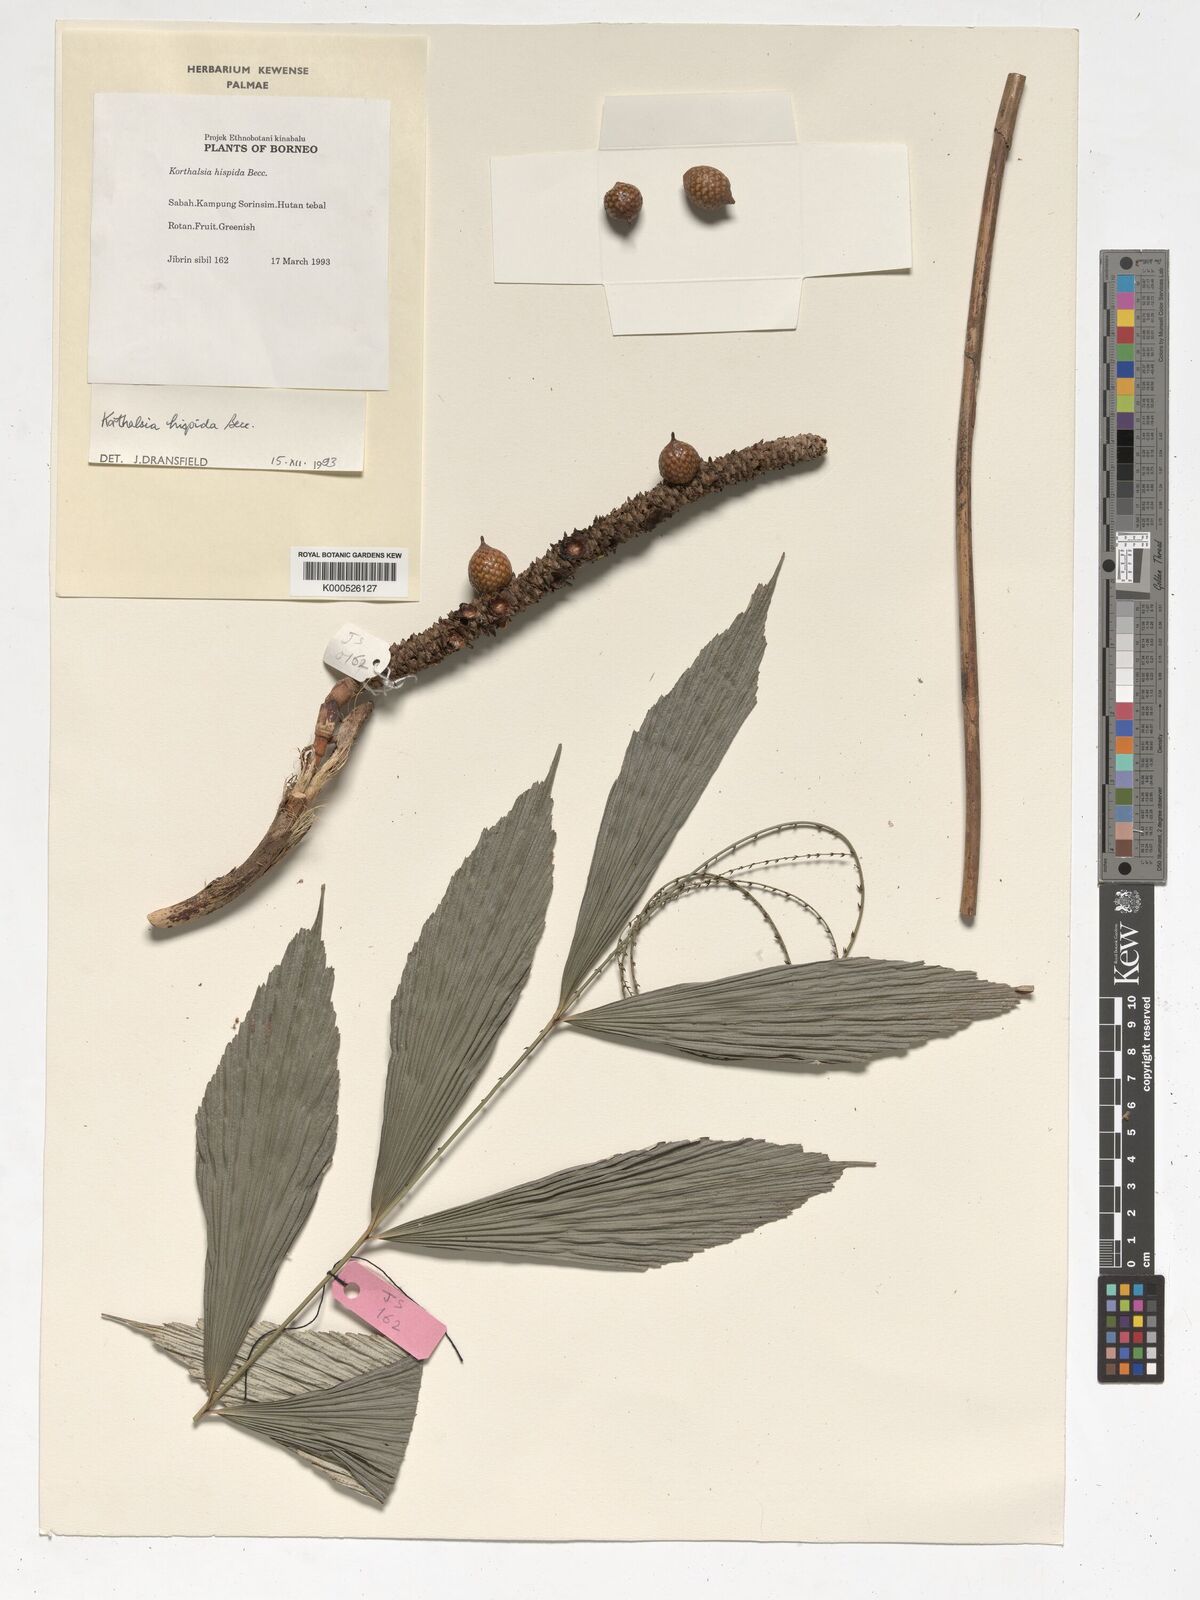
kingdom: Plantae
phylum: Tracheophyta
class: Liliopsida
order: Arecales
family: Arecaceae
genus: Korthalsia
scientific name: Korthalsia hispida
